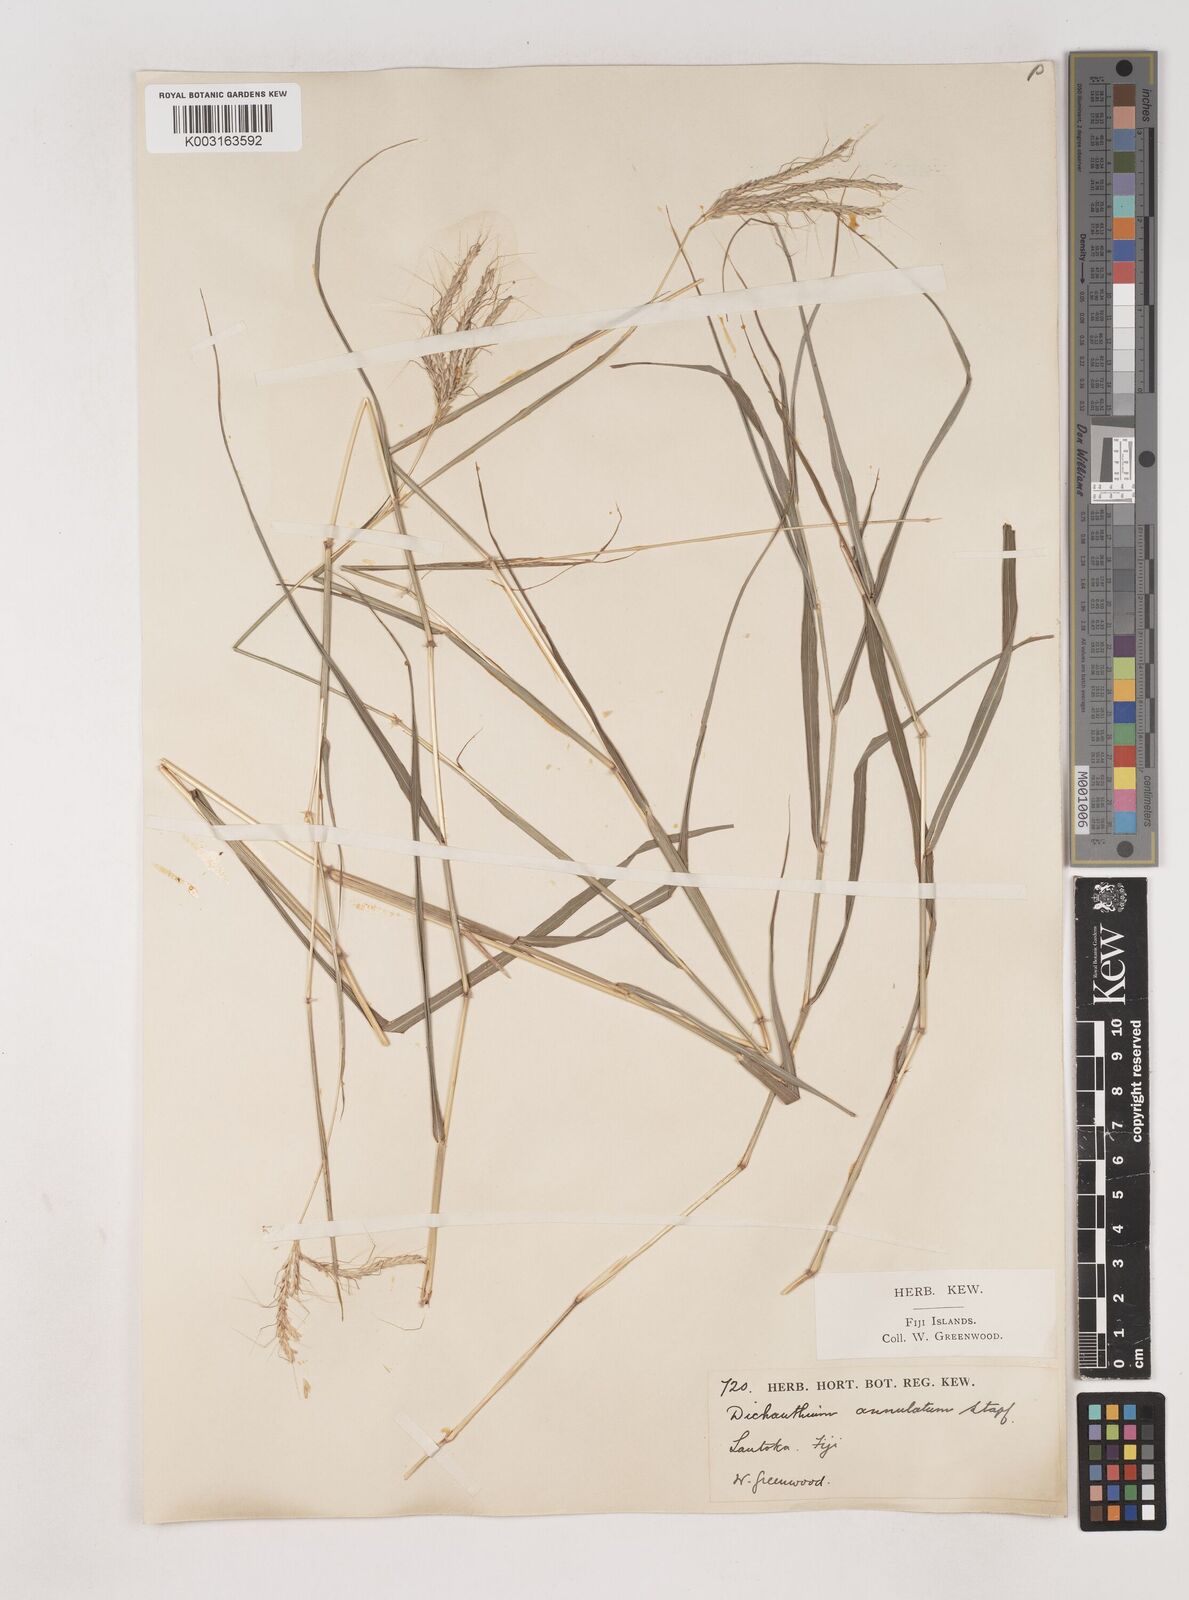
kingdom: Plantae
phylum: Tracheophyta
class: Liliopsida
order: Poales
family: Poaceae
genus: Dichanthium
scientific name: Dichanthium annulatum
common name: Kleberg's bluestem
